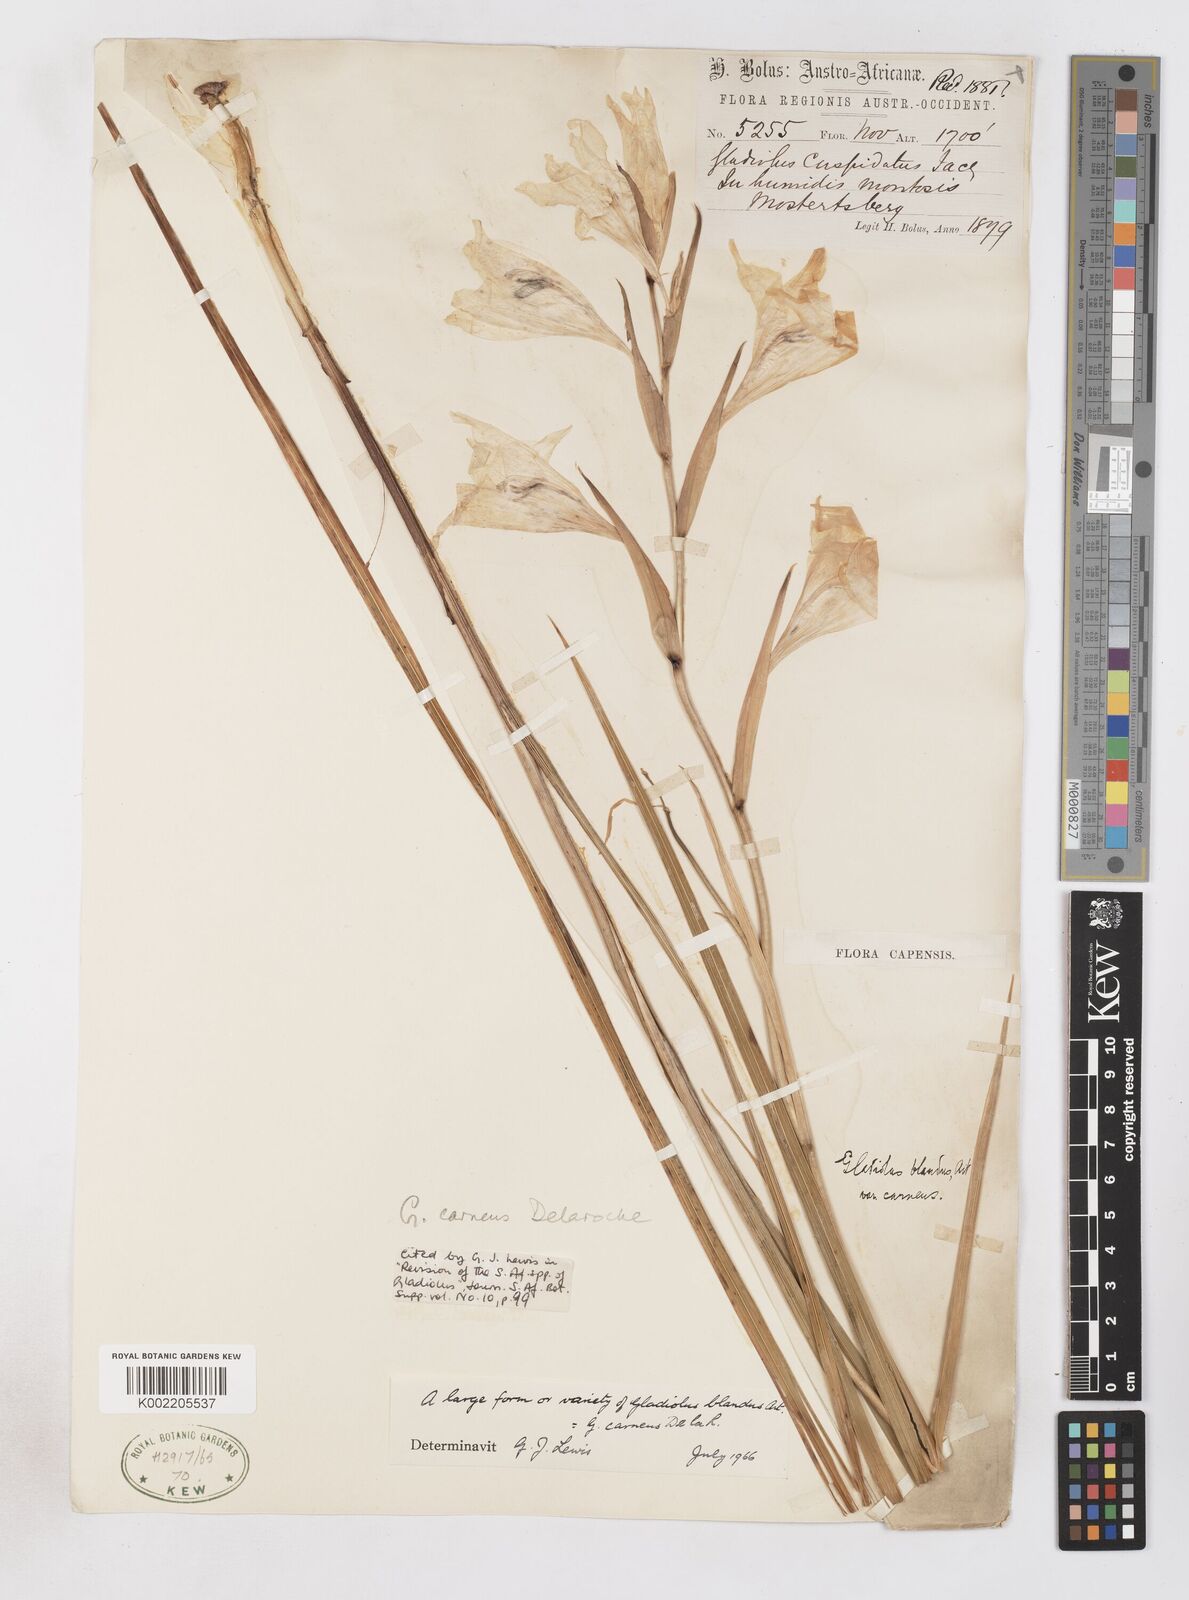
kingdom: Plantae
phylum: Tracheophyta
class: Liliopsida
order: Asparagales
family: Iridaceae
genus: Gladiolus
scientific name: Gladiolus carneus
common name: Painted-lady
